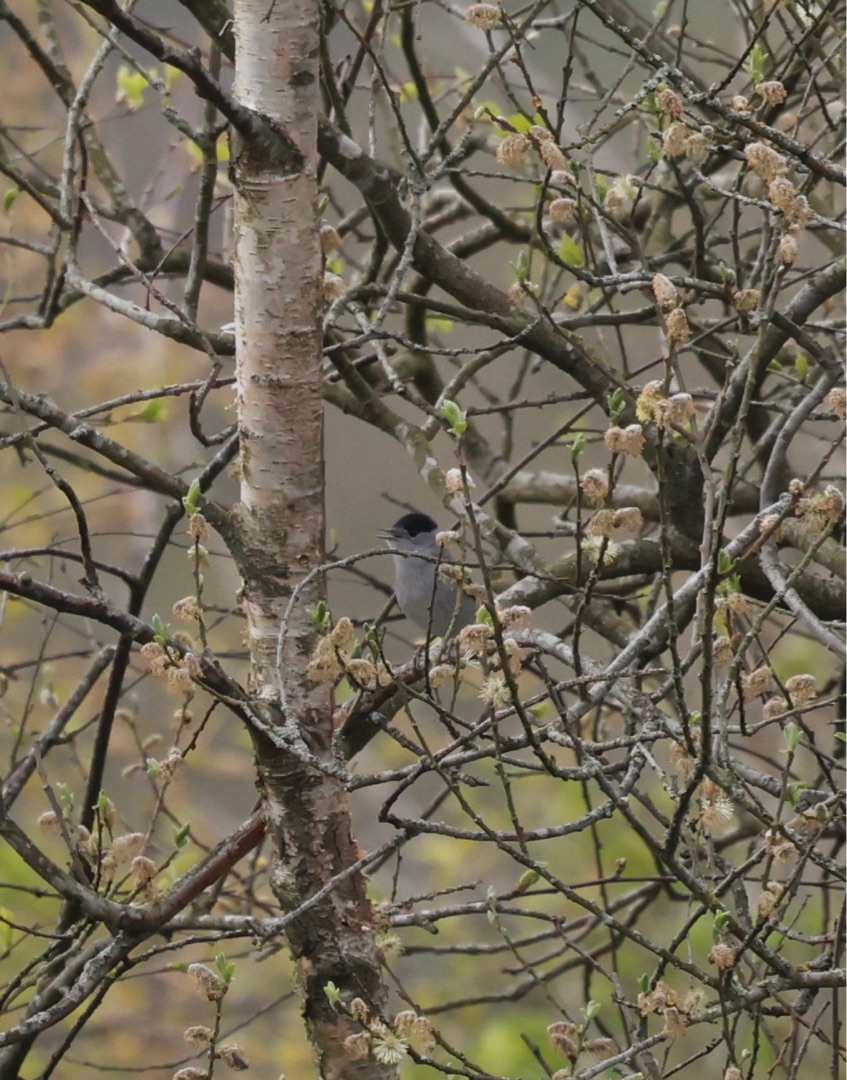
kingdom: Animalia
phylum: Chordata
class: Aves
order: Passeriformes
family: Sylviidae
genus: Sylvia
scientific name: Sylvia atricapilla
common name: Munk
